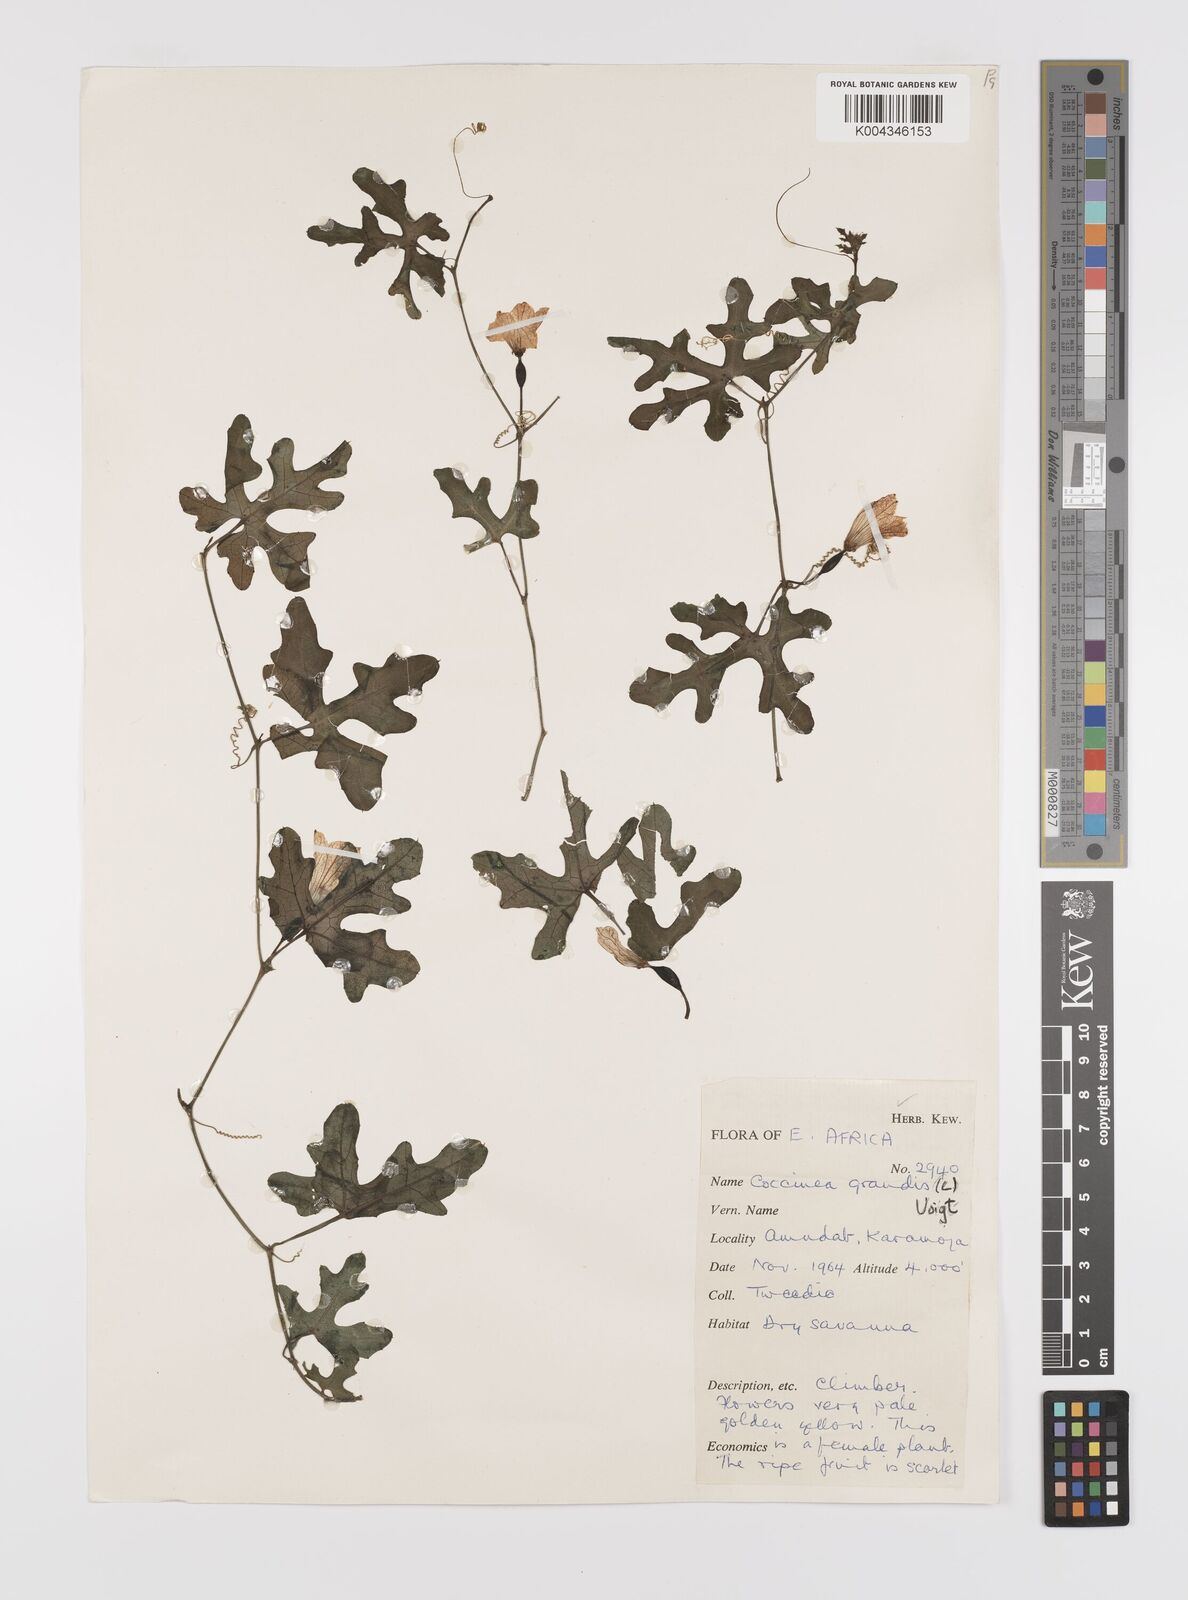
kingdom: Plantae
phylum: Tracheophyta
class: Magnoliopsida
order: Cucurbitales
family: Cucurbitaceae
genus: Coccinia
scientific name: Coccinia grandis
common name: Ivy gourd
